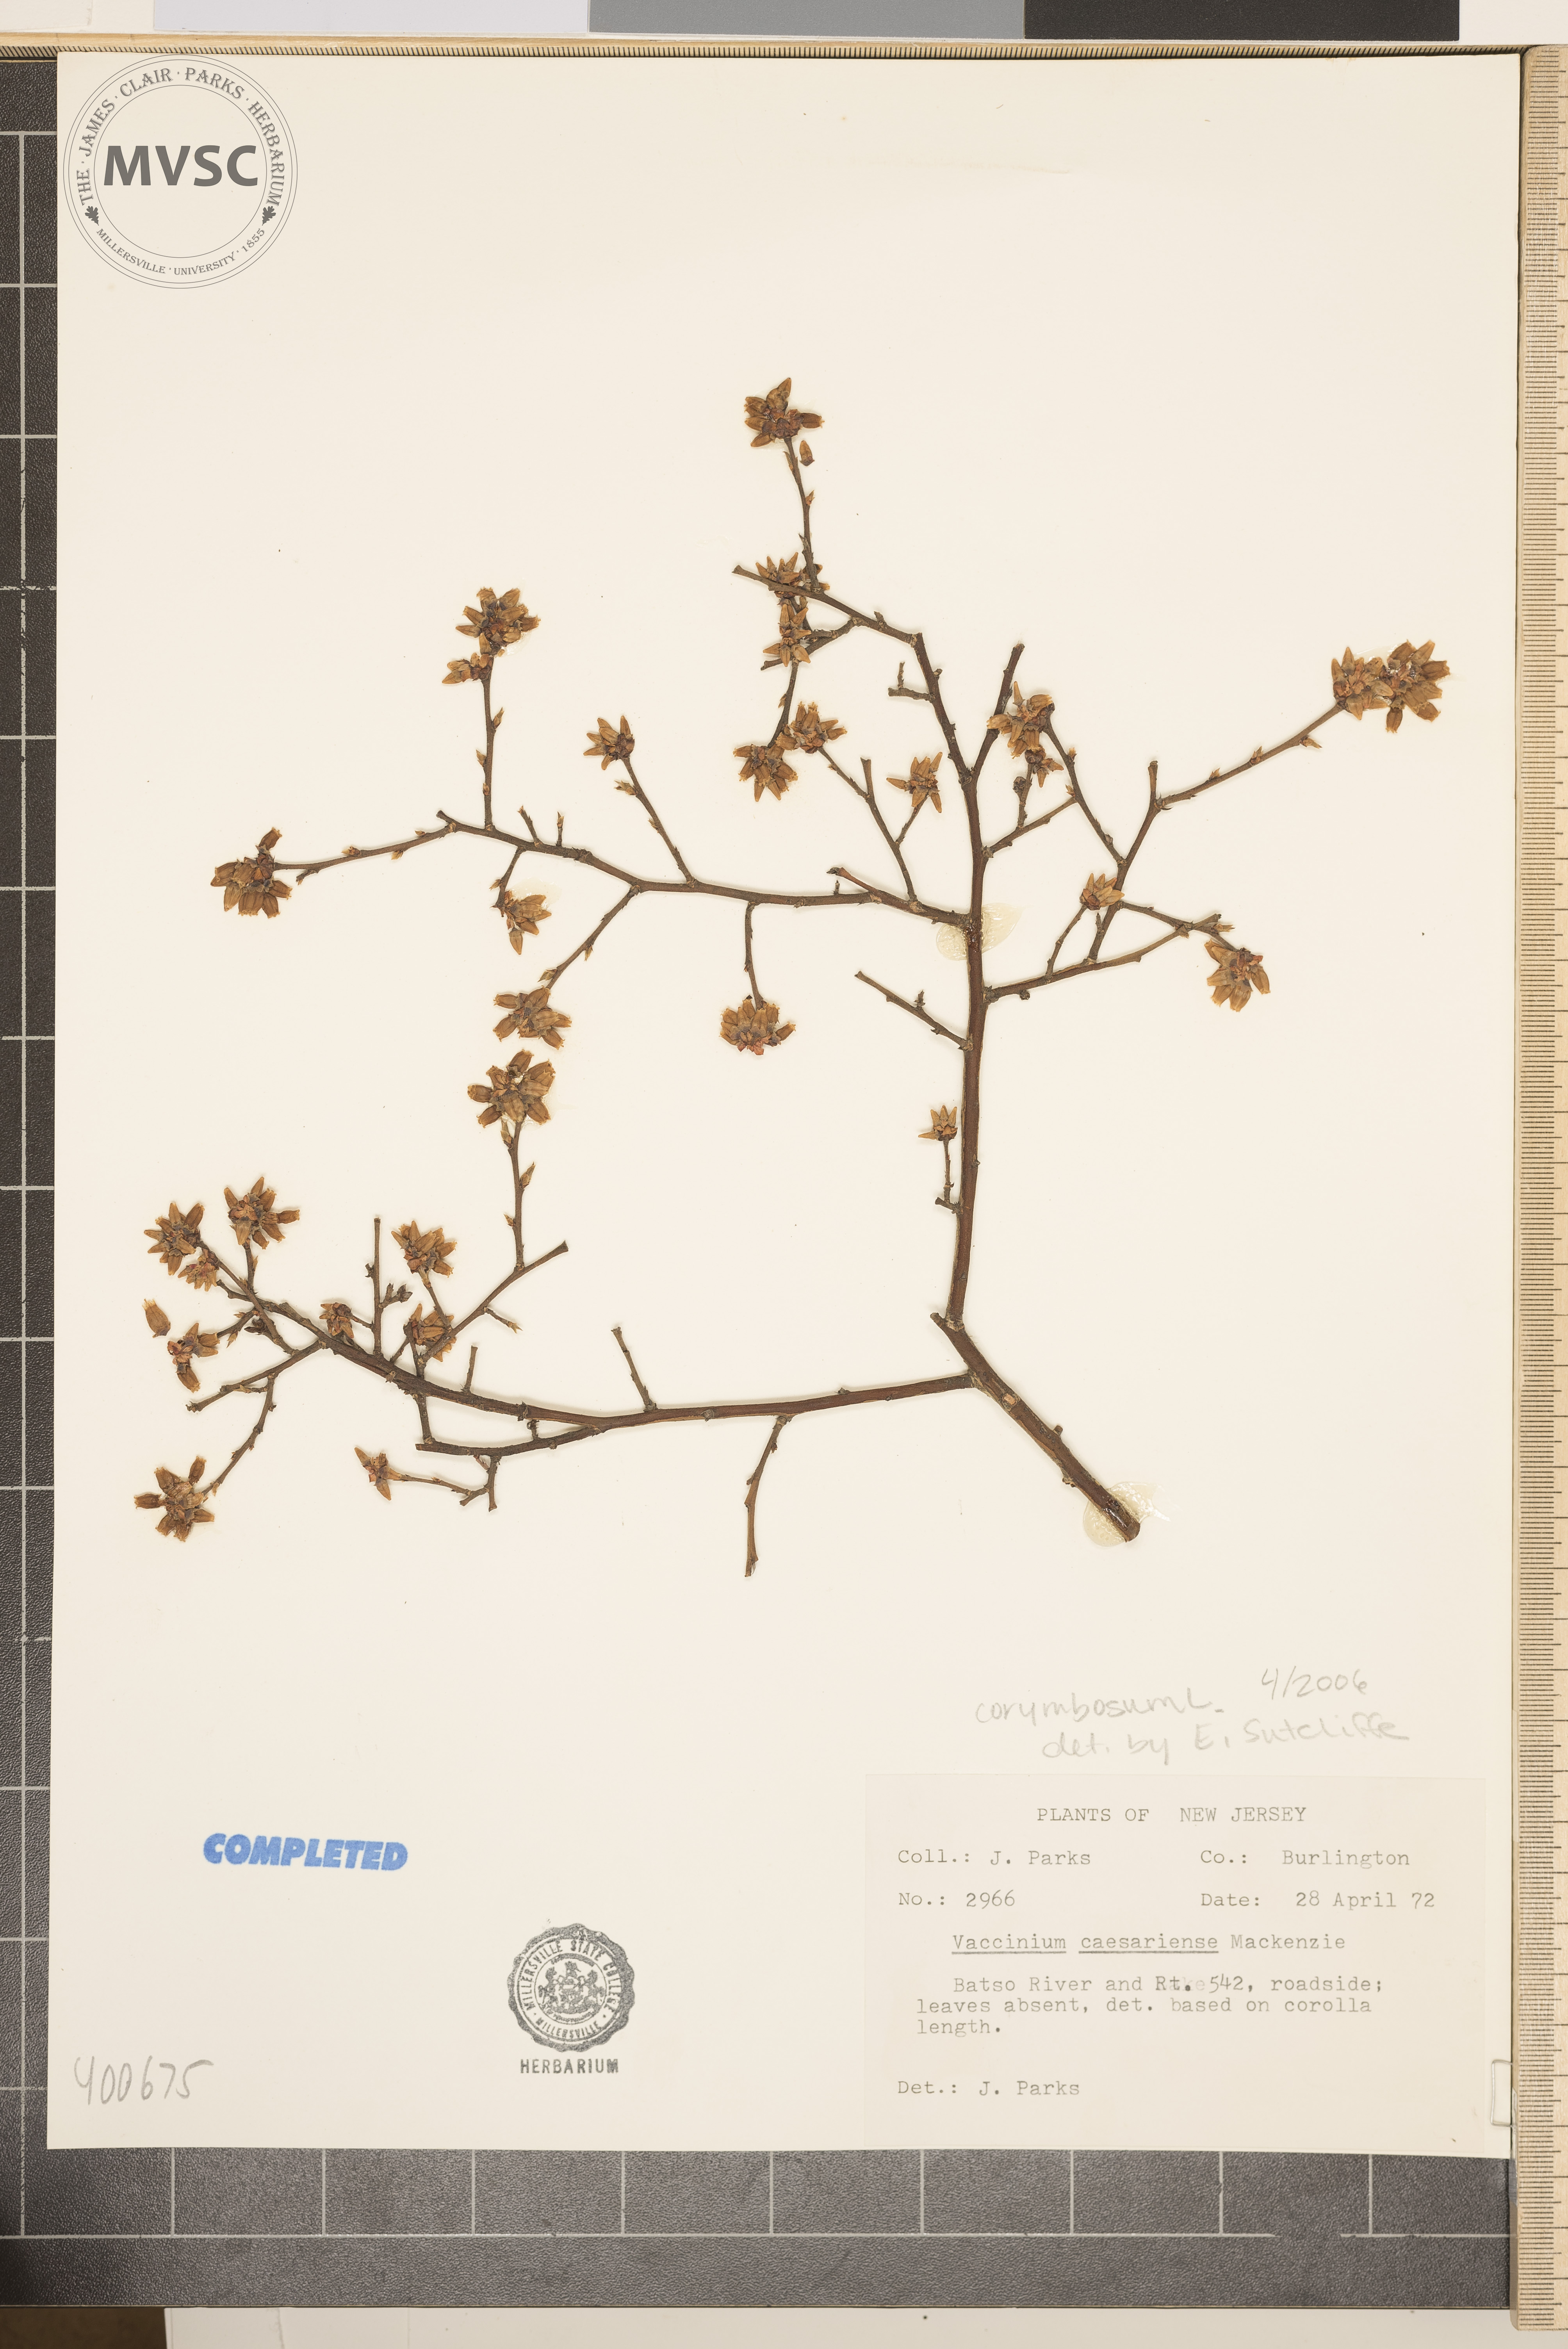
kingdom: Plantae
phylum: Tracheophyta
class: Magnoliopsida
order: Ericales
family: Ericaceae
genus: Vaccinium
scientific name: Vaccinium corymbosum
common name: blueberry
